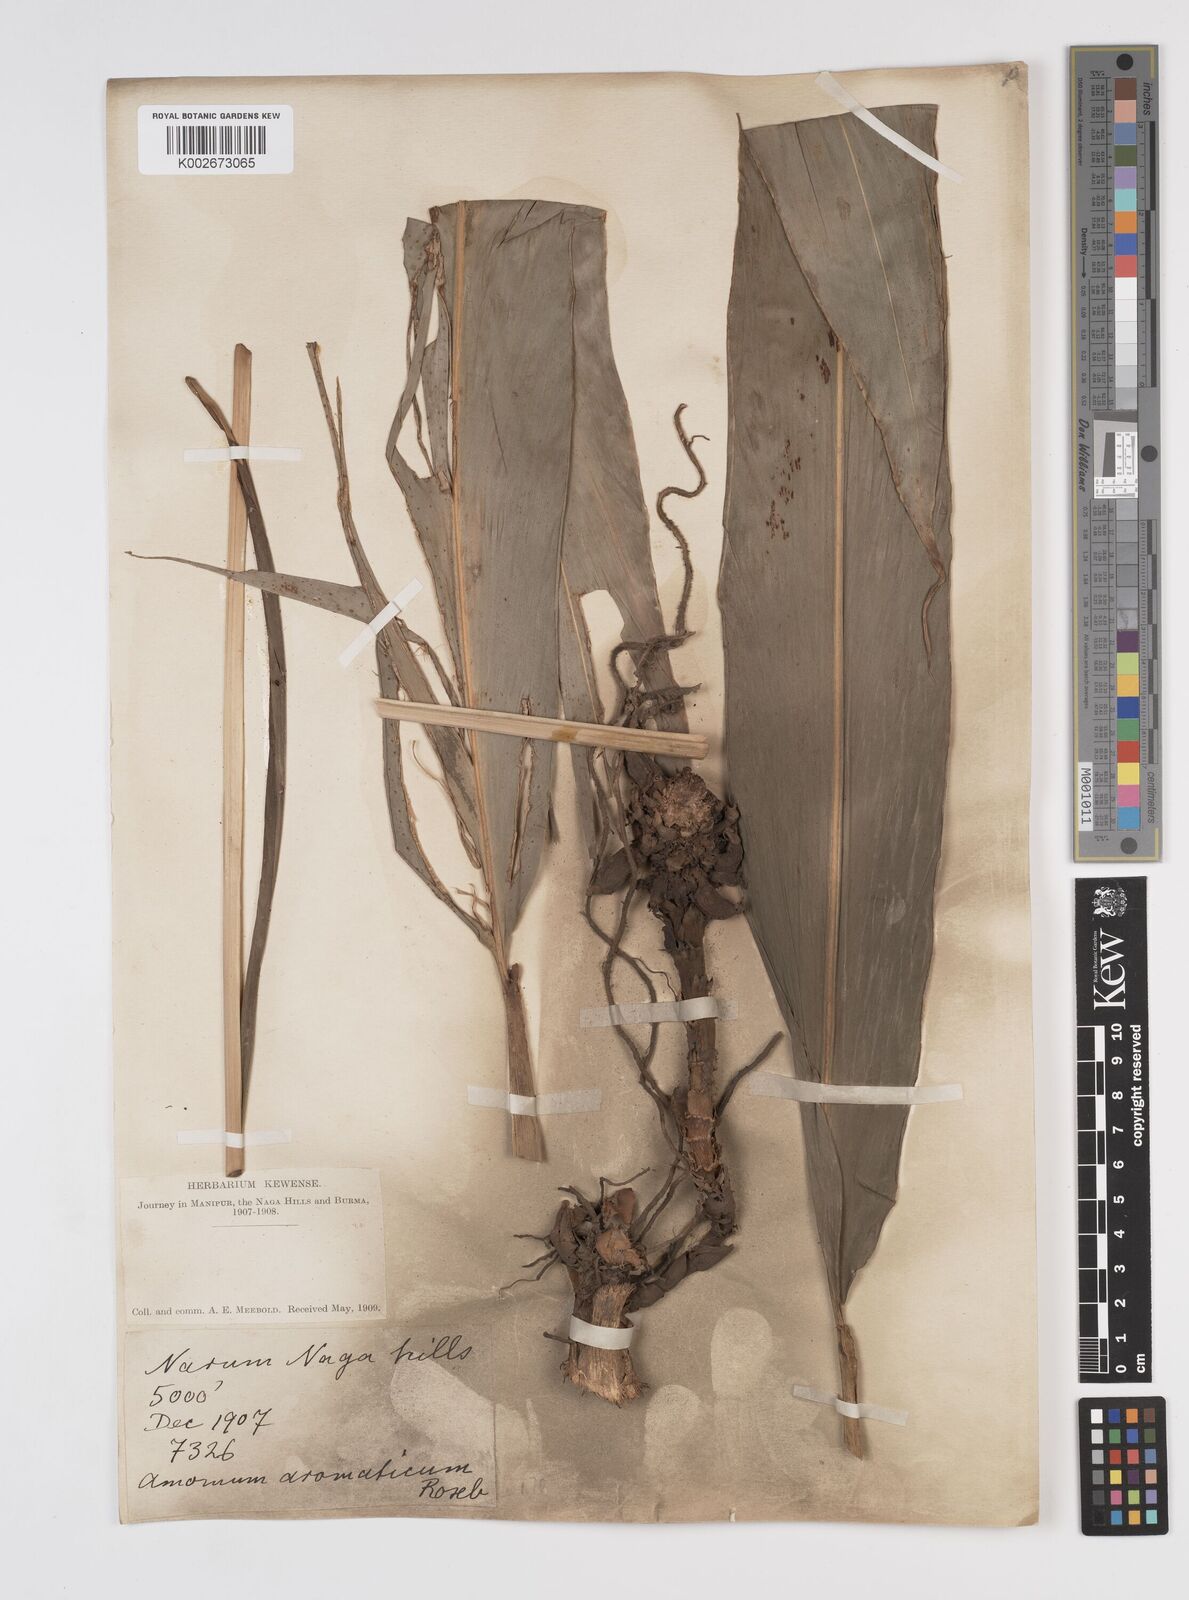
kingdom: Plantae
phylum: Tracheophyta
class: Liliopsida
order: Zingiberales
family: Zingiberaceae
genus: Wurfbainia
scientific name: Wurfbainia aromatica
